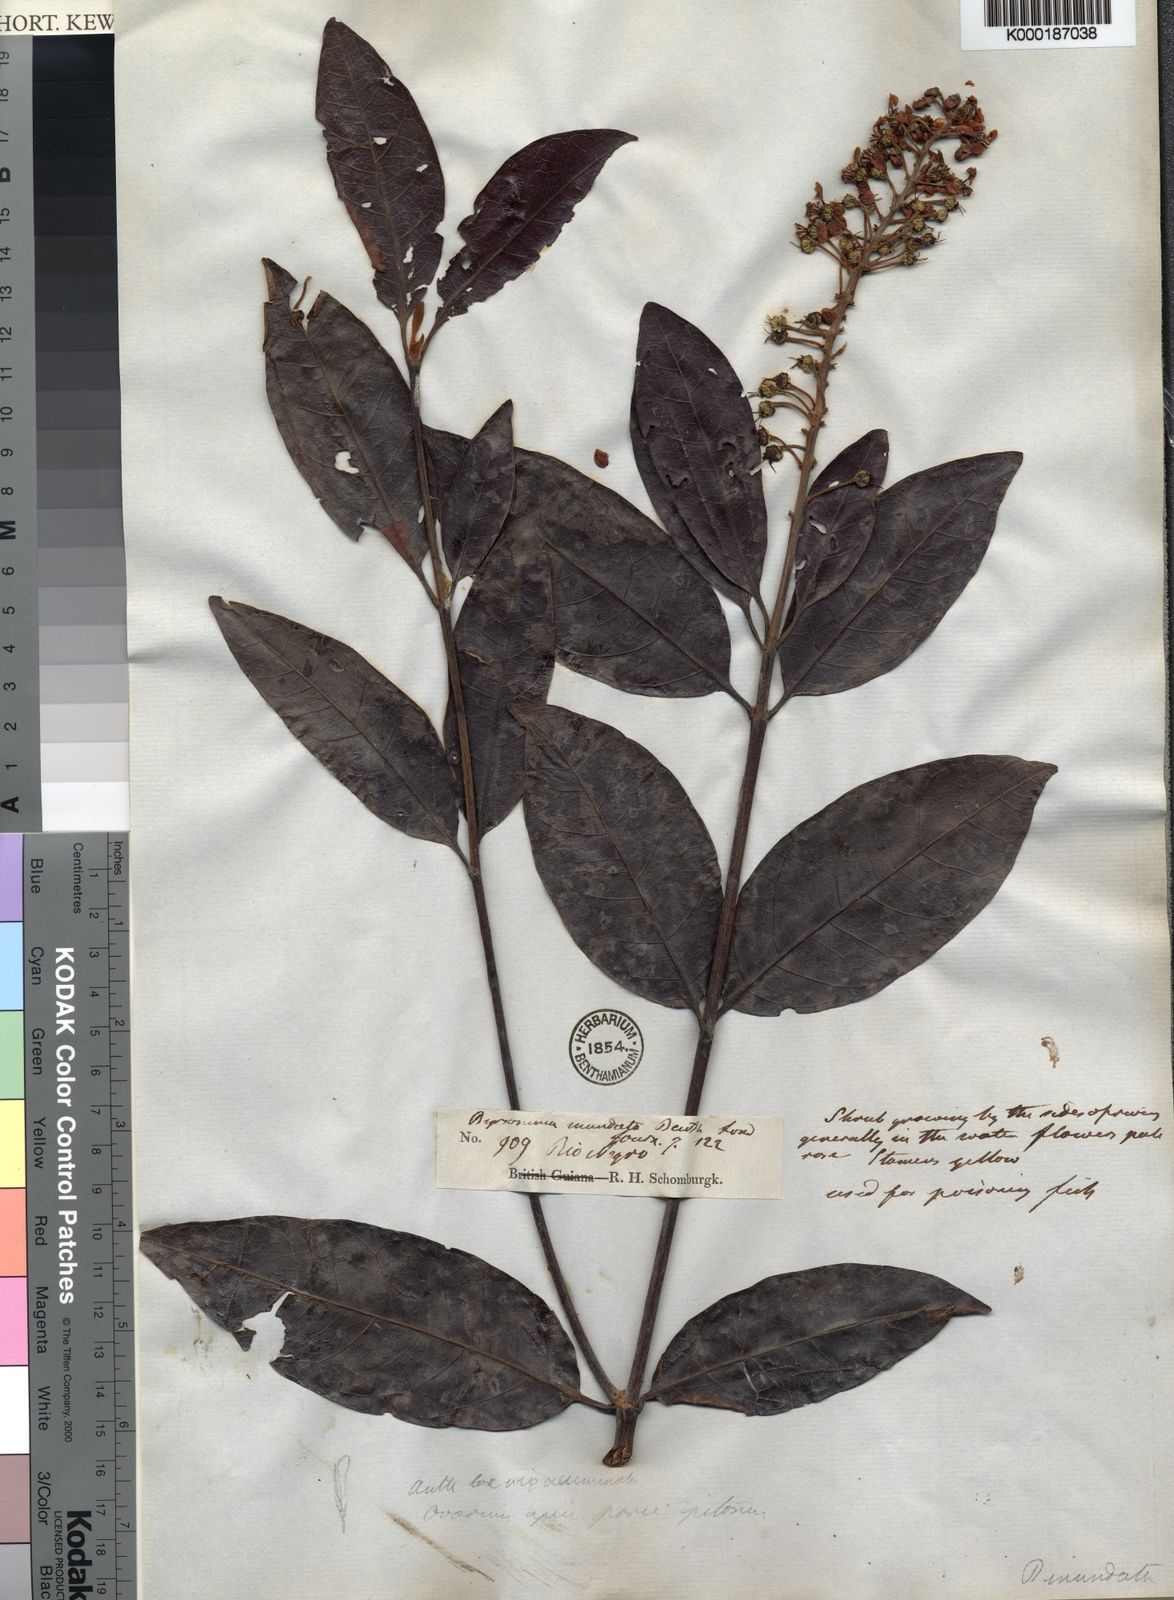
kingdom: Plantae
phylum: Tracheophyta
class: Magnoliopsida
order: Malpighiales
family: Malpighiaceae
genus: Byrsonima
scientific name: Byrsonima japurensis
